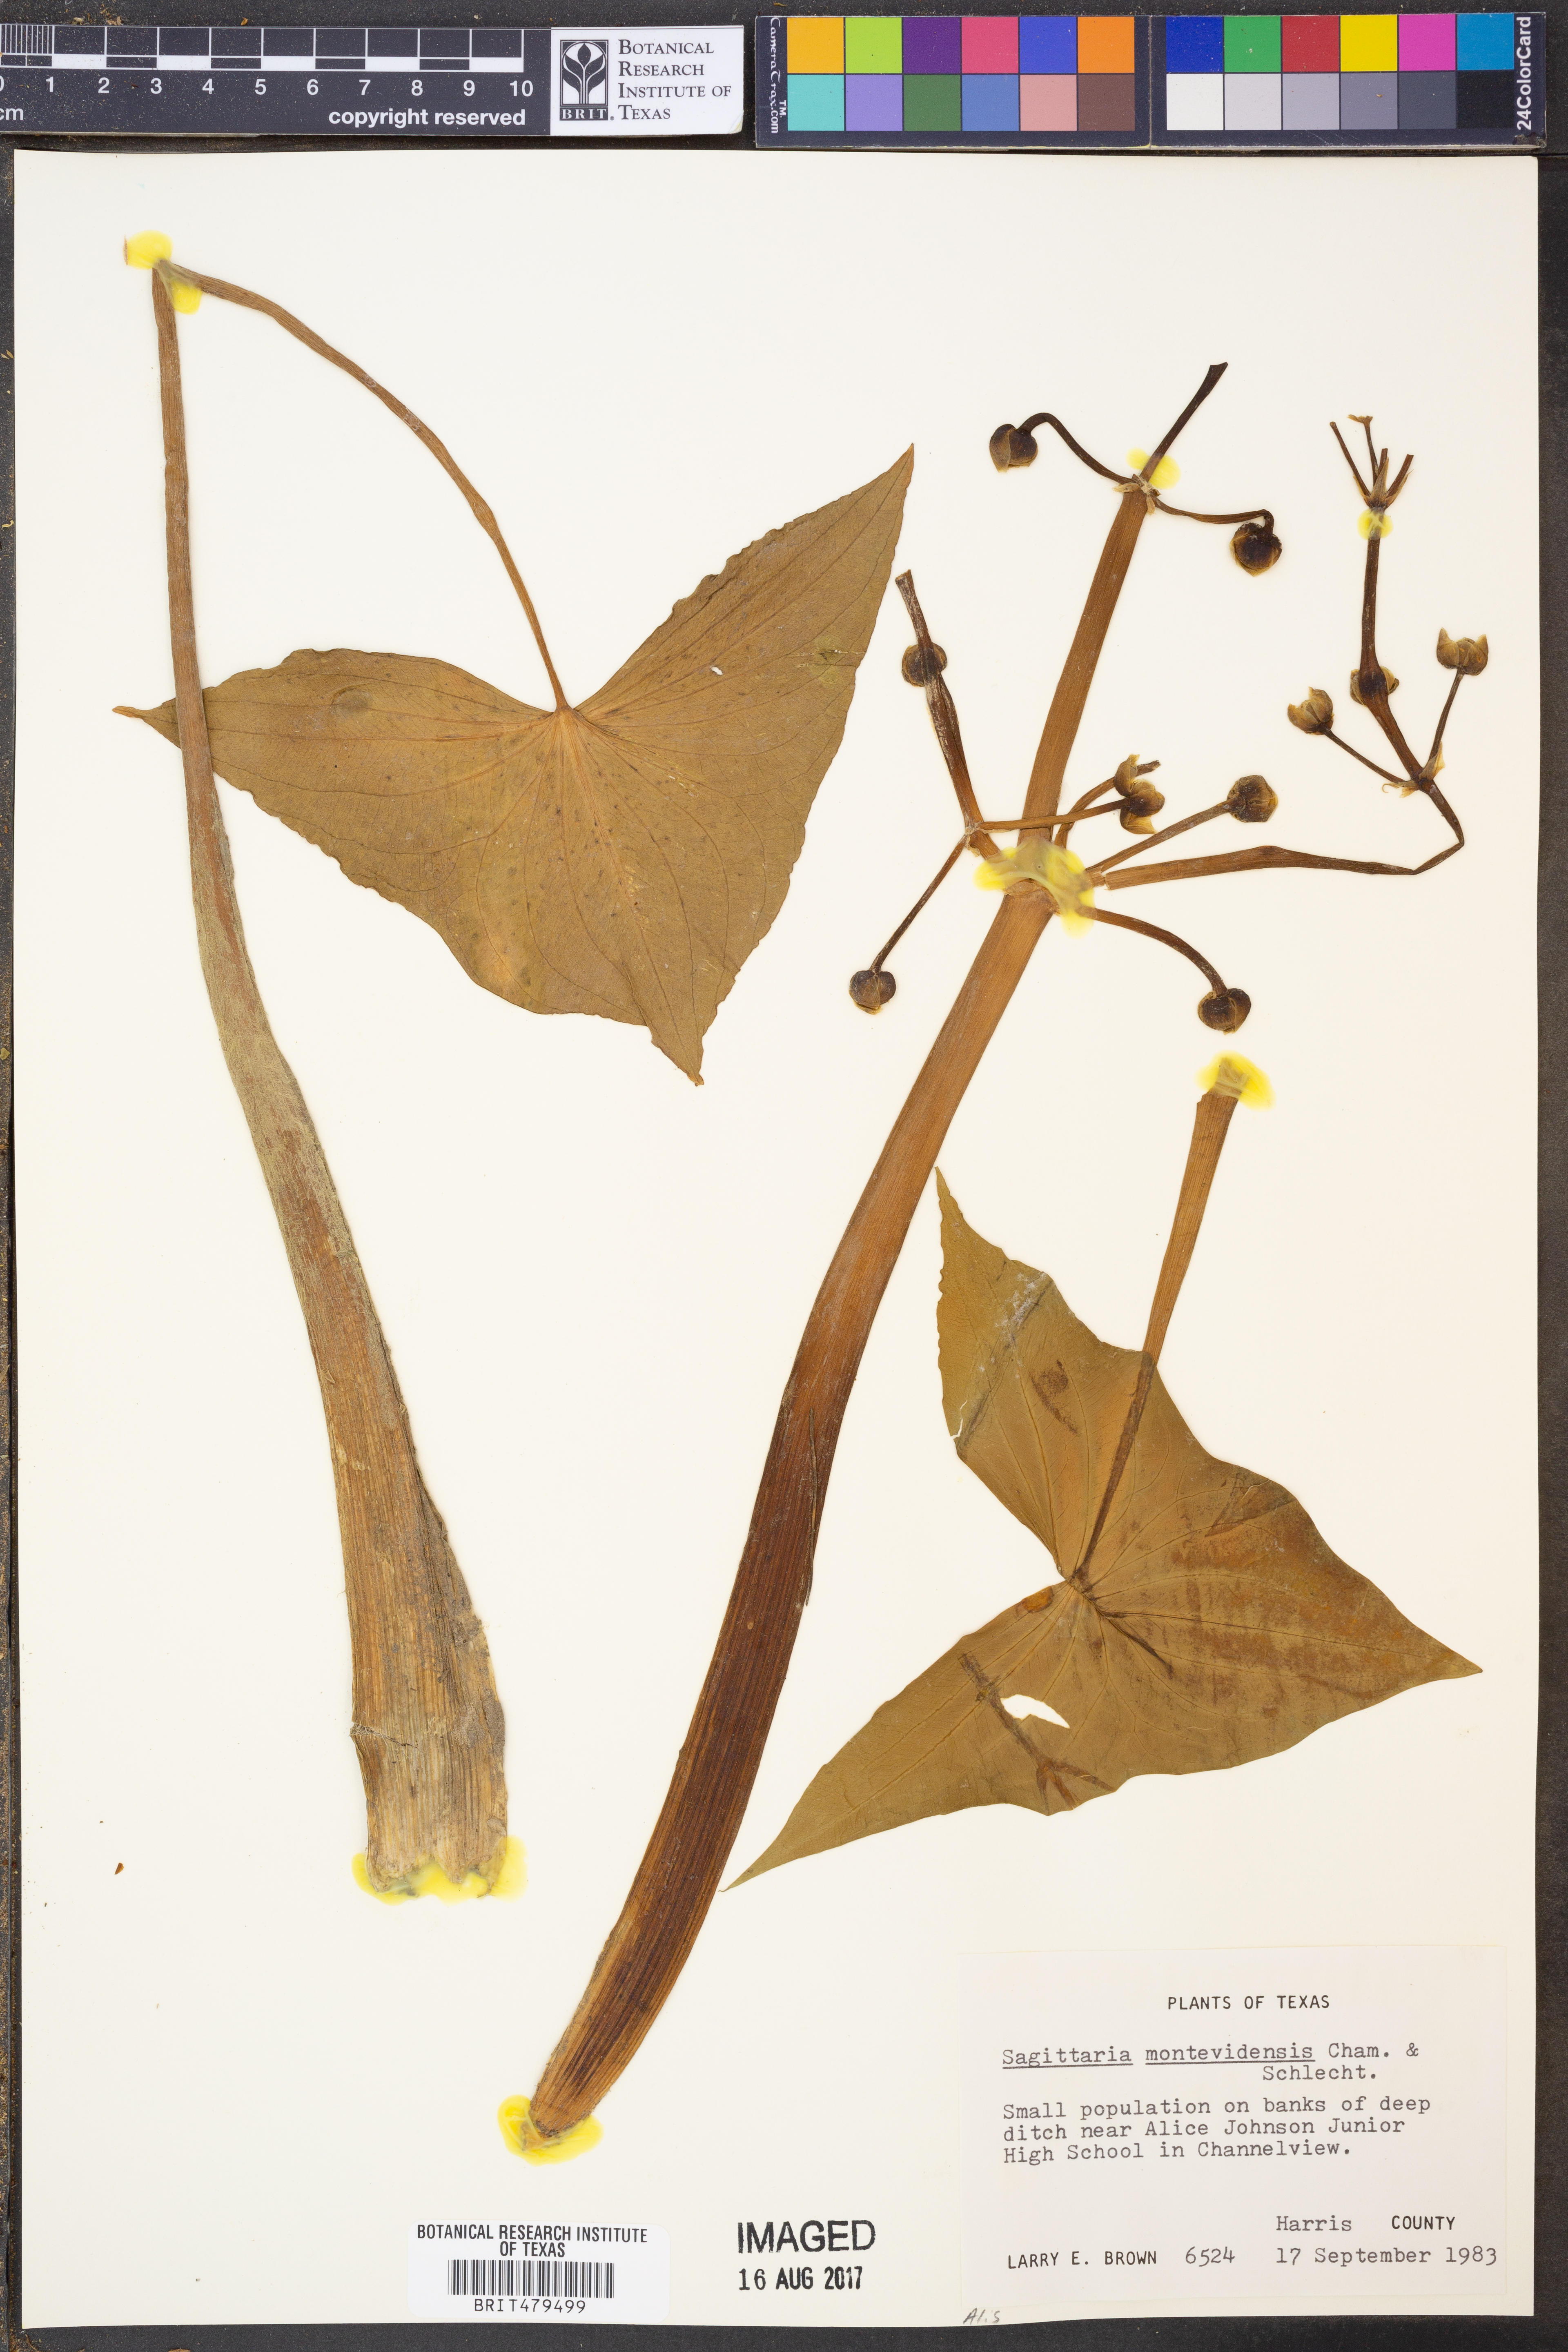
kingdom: Plantae
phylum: Tracheophyta
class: Liliopsida
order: Alismatales
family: Alismataceae
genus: Sagittaria
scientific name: Sagittaria montevidensis
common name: Giant arrowhead
